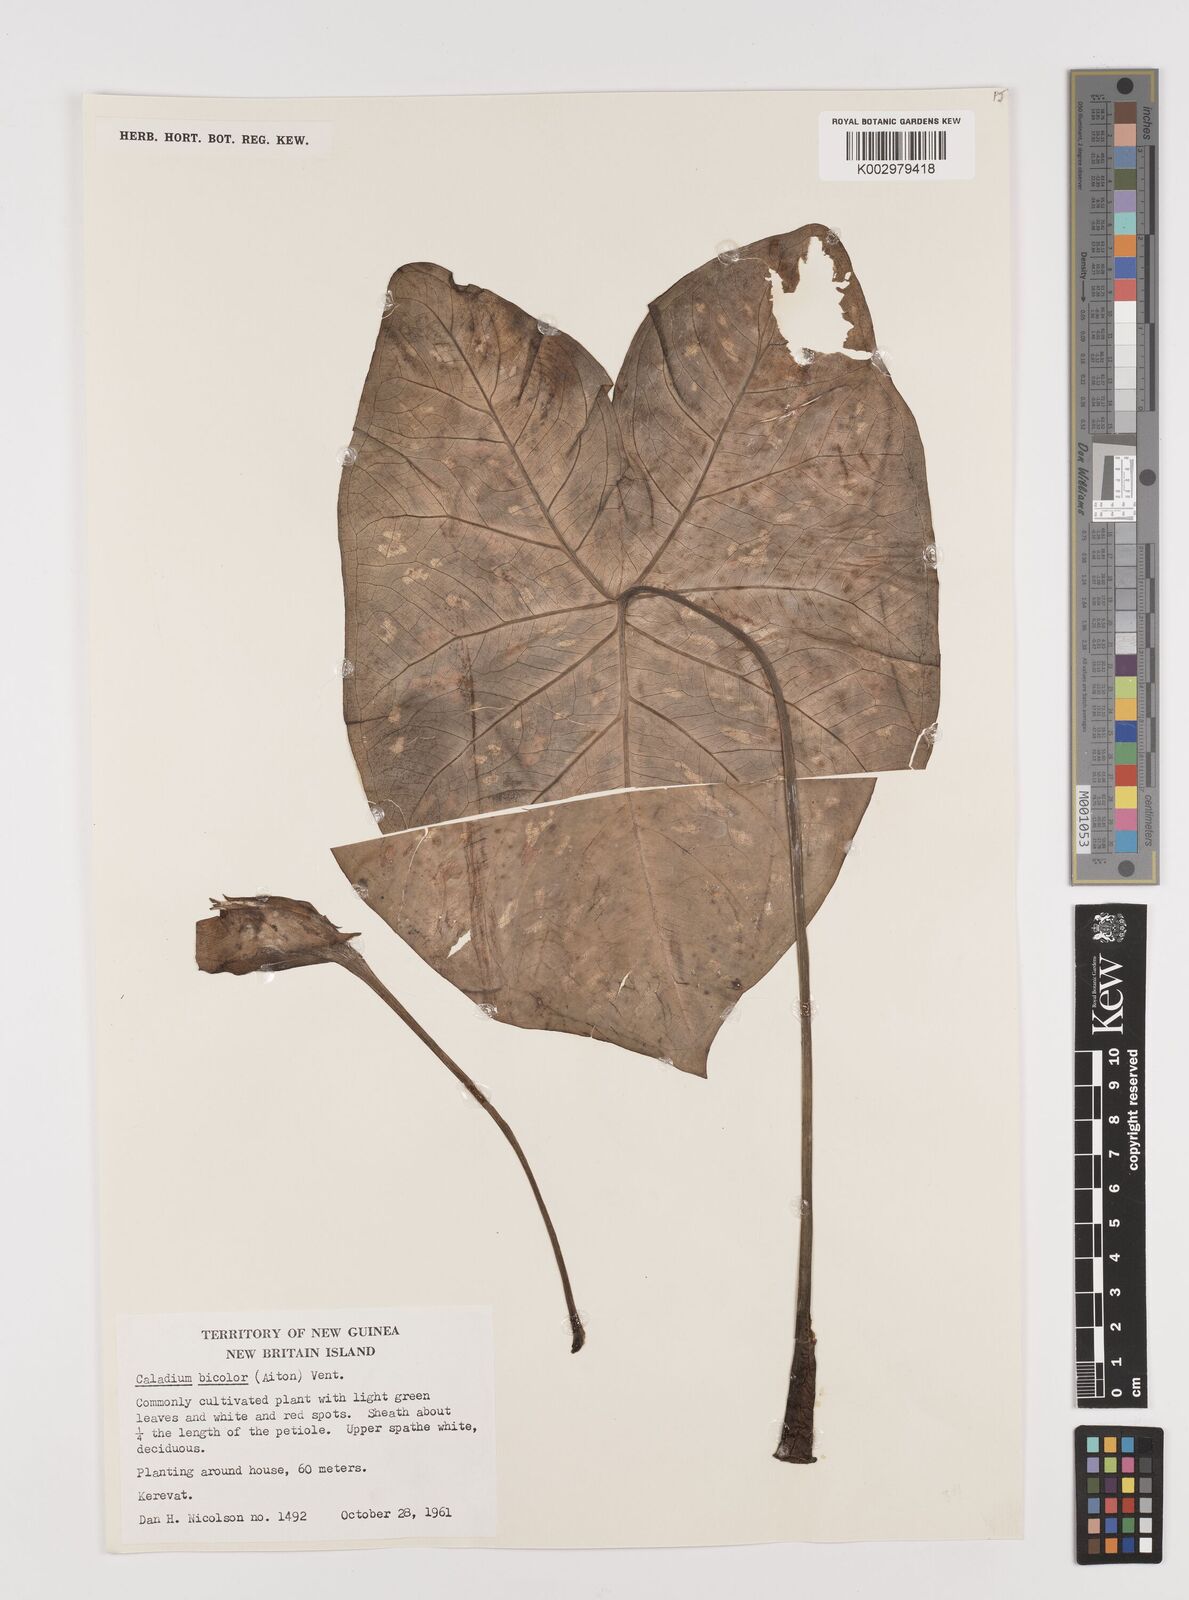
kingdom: Plantae
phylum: Tracheophyta
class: Liliopsida
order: Alismatales
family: Araceae
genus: Caladium
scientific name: Caladium bicolor
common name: Artist's pallet
